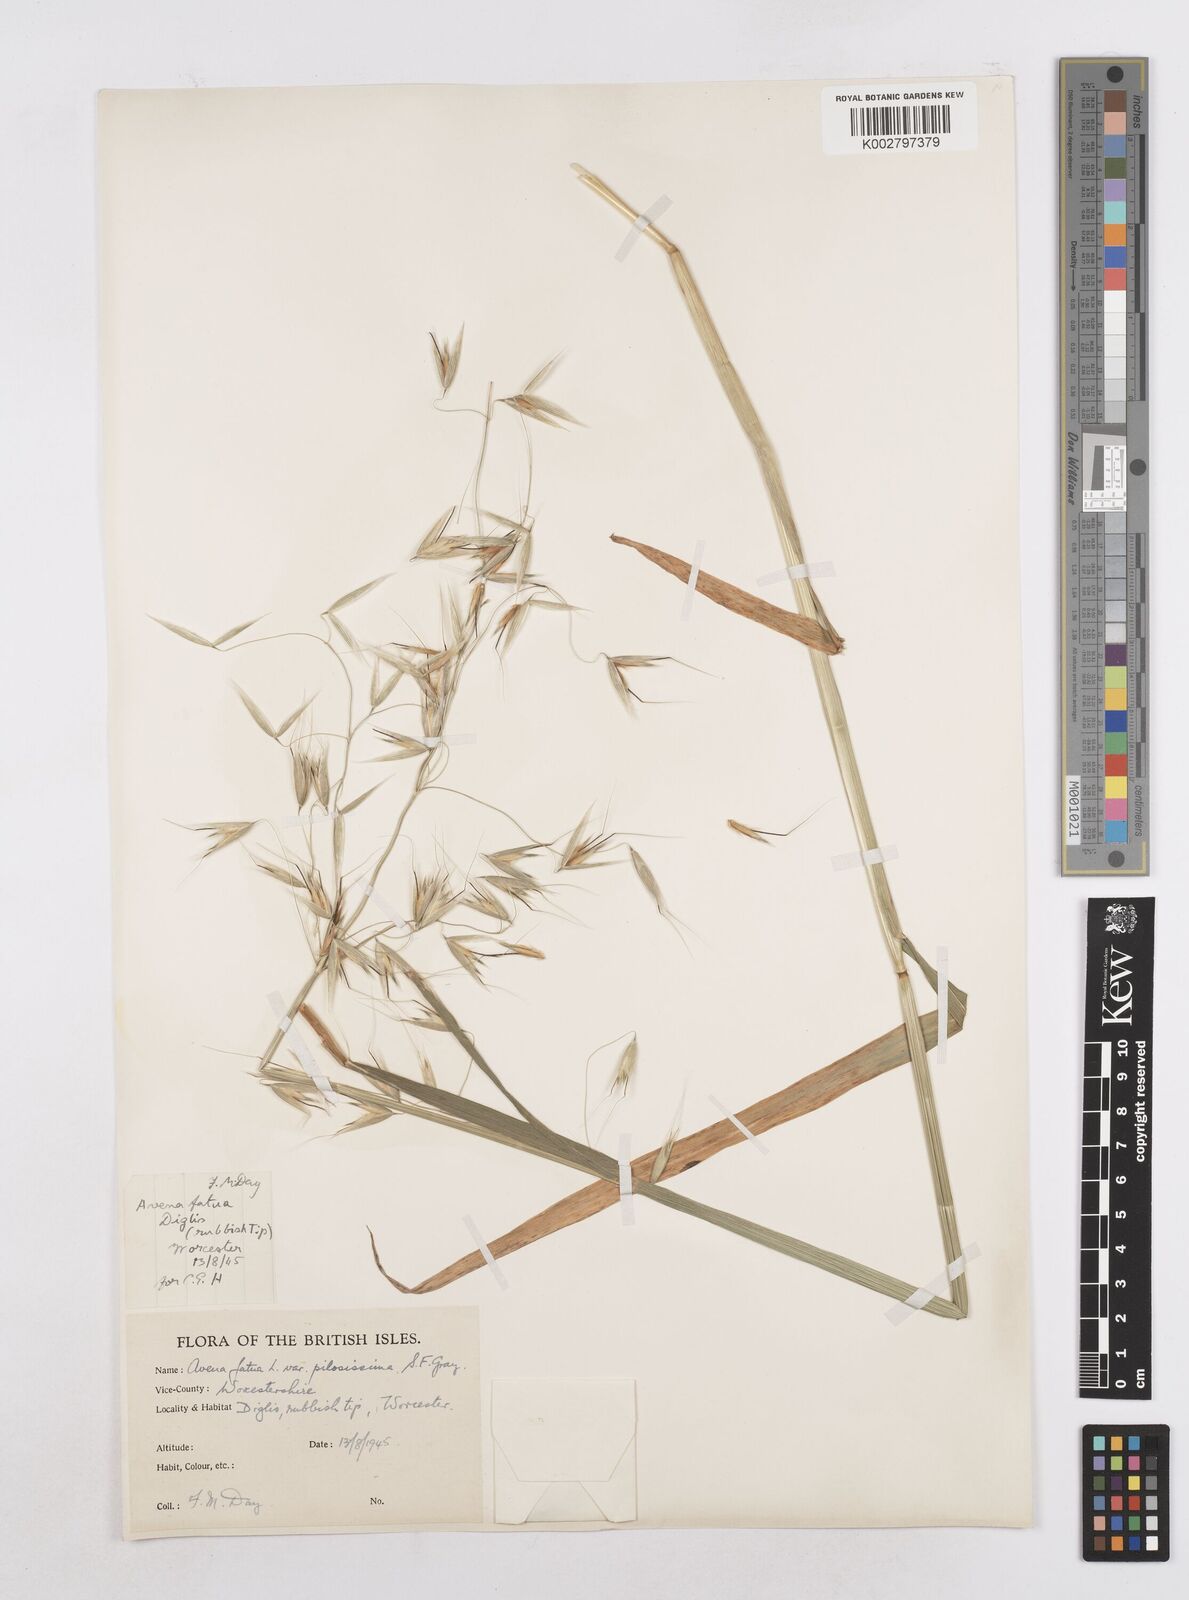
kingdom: Plantae
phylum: Tracheophyta
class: Liliopsida
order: Poales
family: Poaceae
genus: Avena
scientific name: Avena fatua
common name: Wild oat
